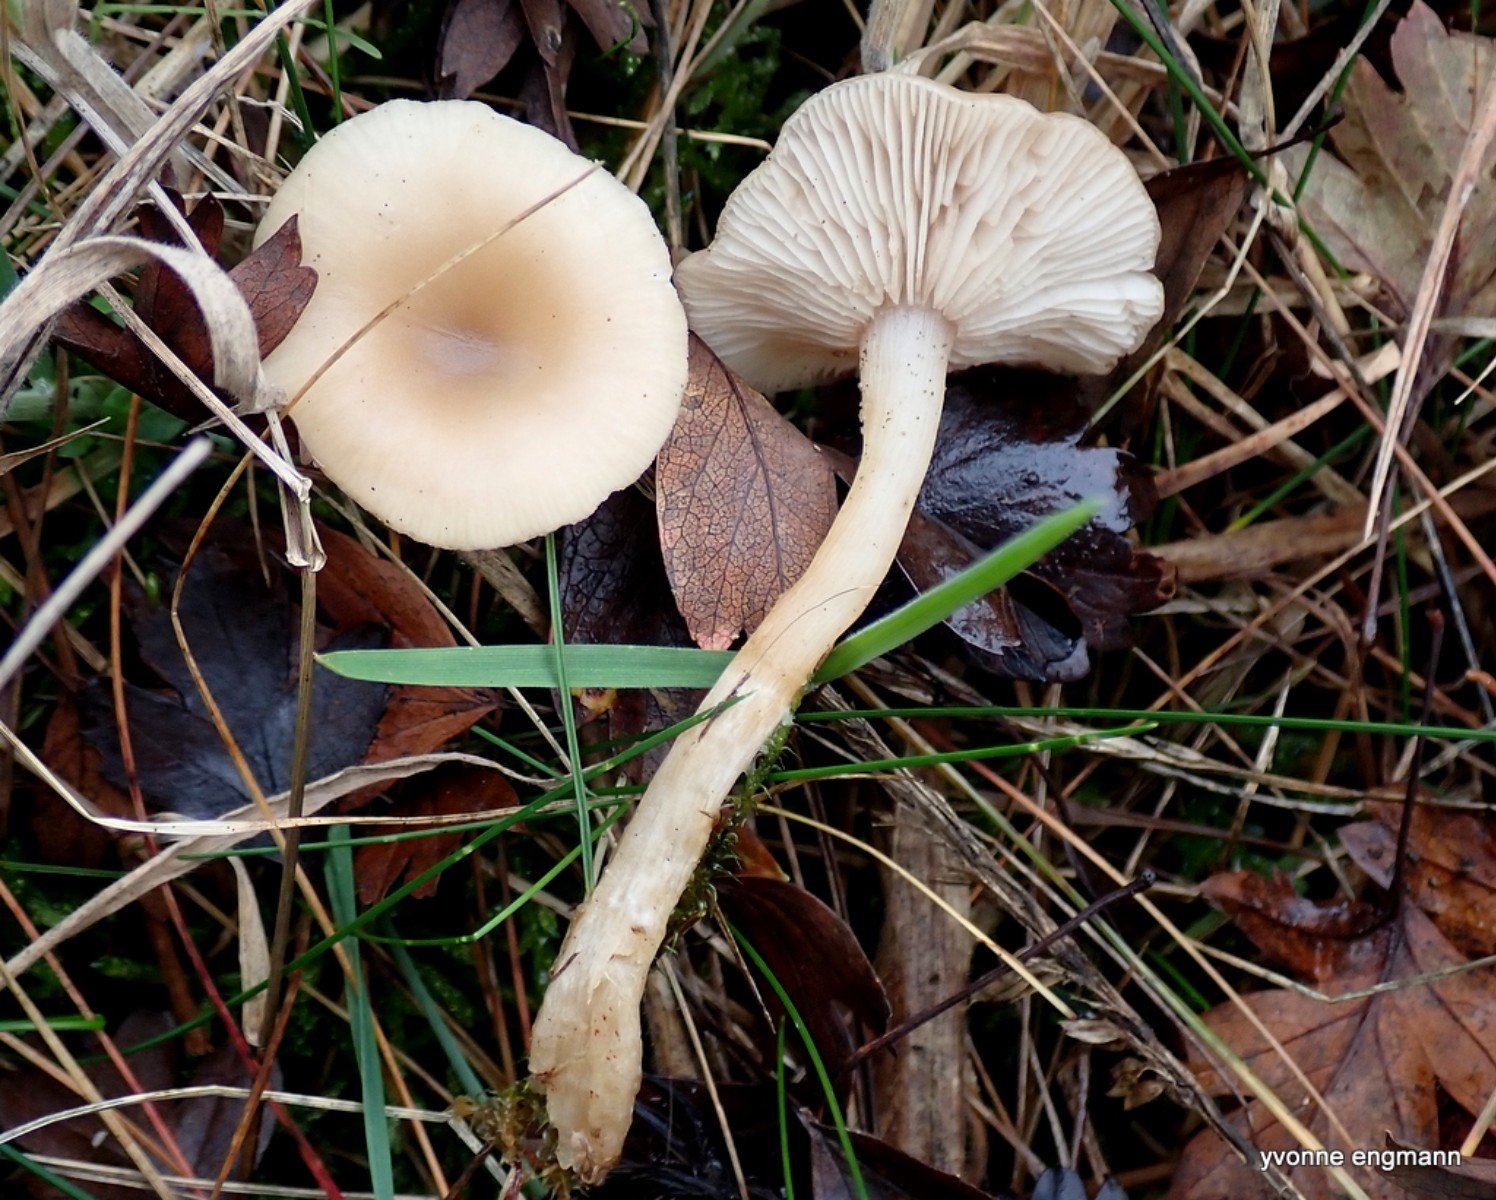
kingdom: Fungi
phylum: Basidiomycota
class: Agaricomycetes
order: Agaricales
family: Tricholomataceae
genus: Clitocybe
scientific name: Clitocybe fragrans
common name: vellugtende tragthat
